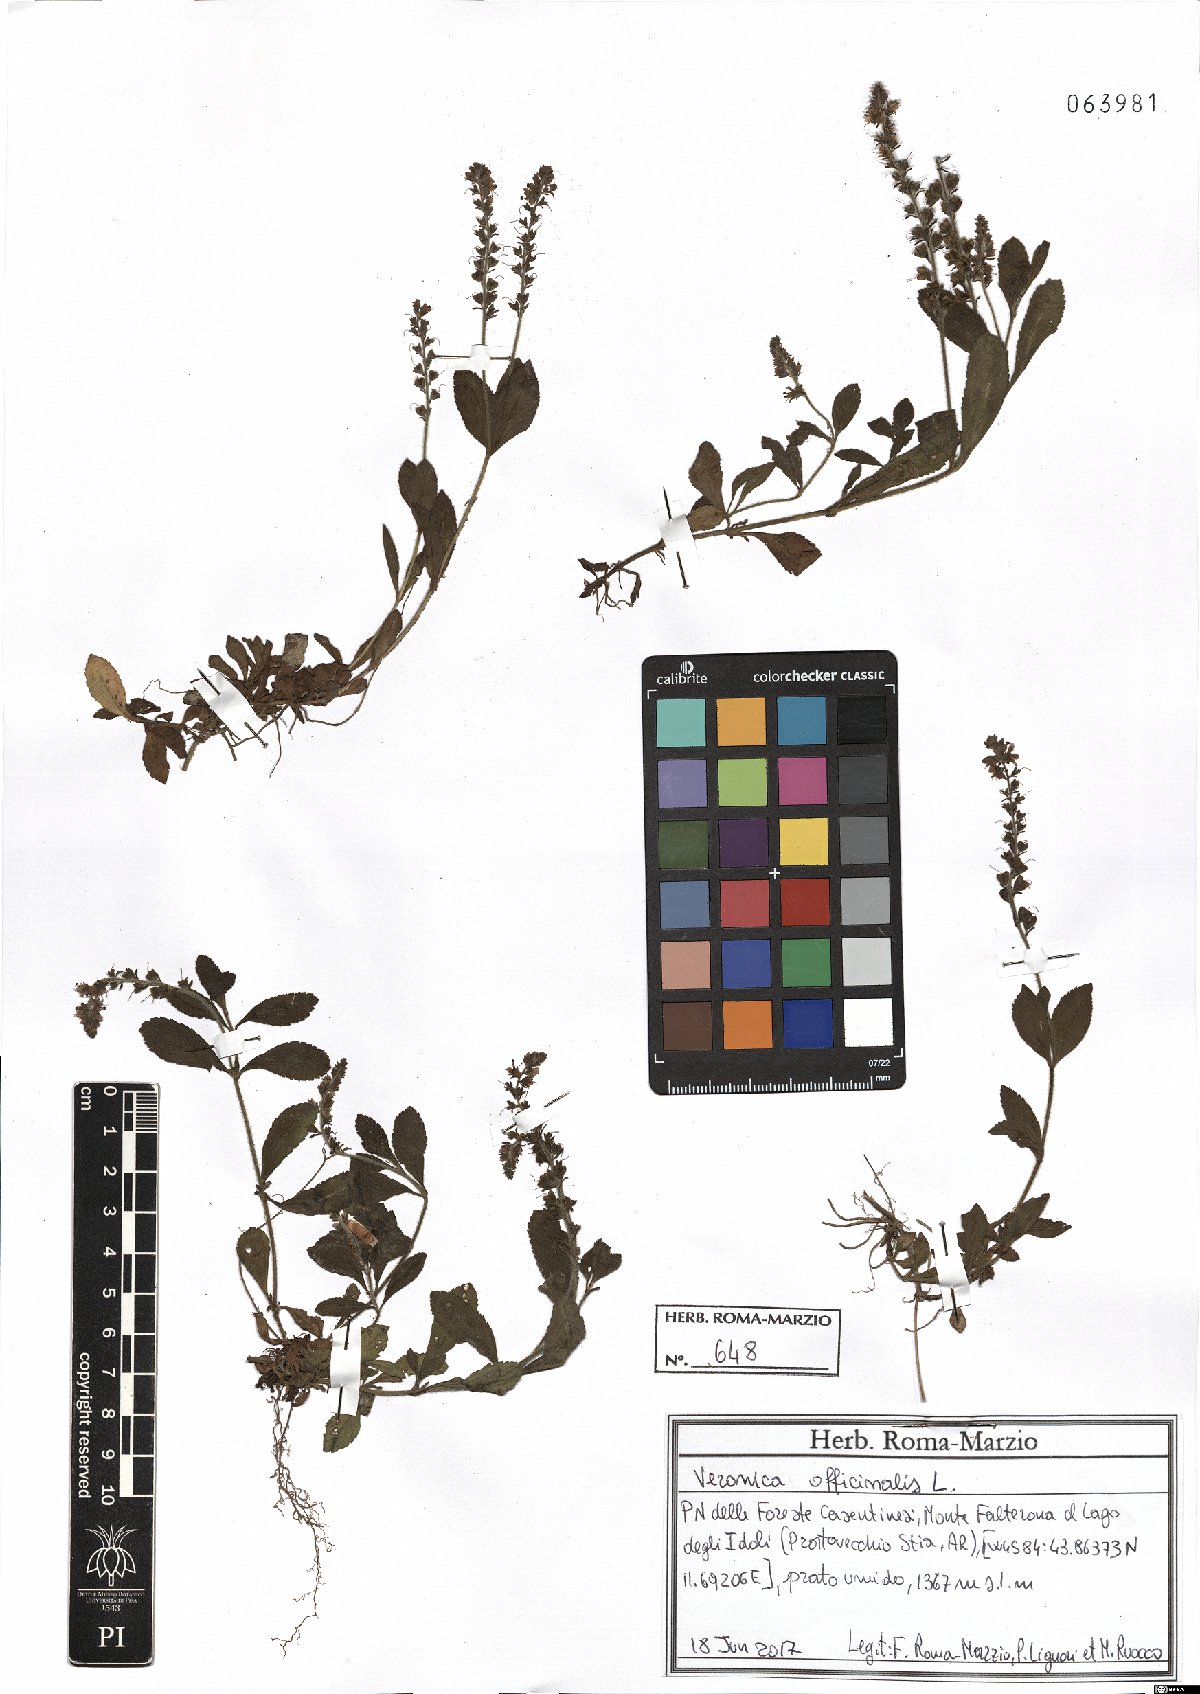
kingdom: Plantae
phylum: Tracheophyta
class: Magnoliopsida
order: Lamiales
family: Plantaginaceae
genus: Veronica
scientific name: Veronica officinalis
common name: Common speedwell
